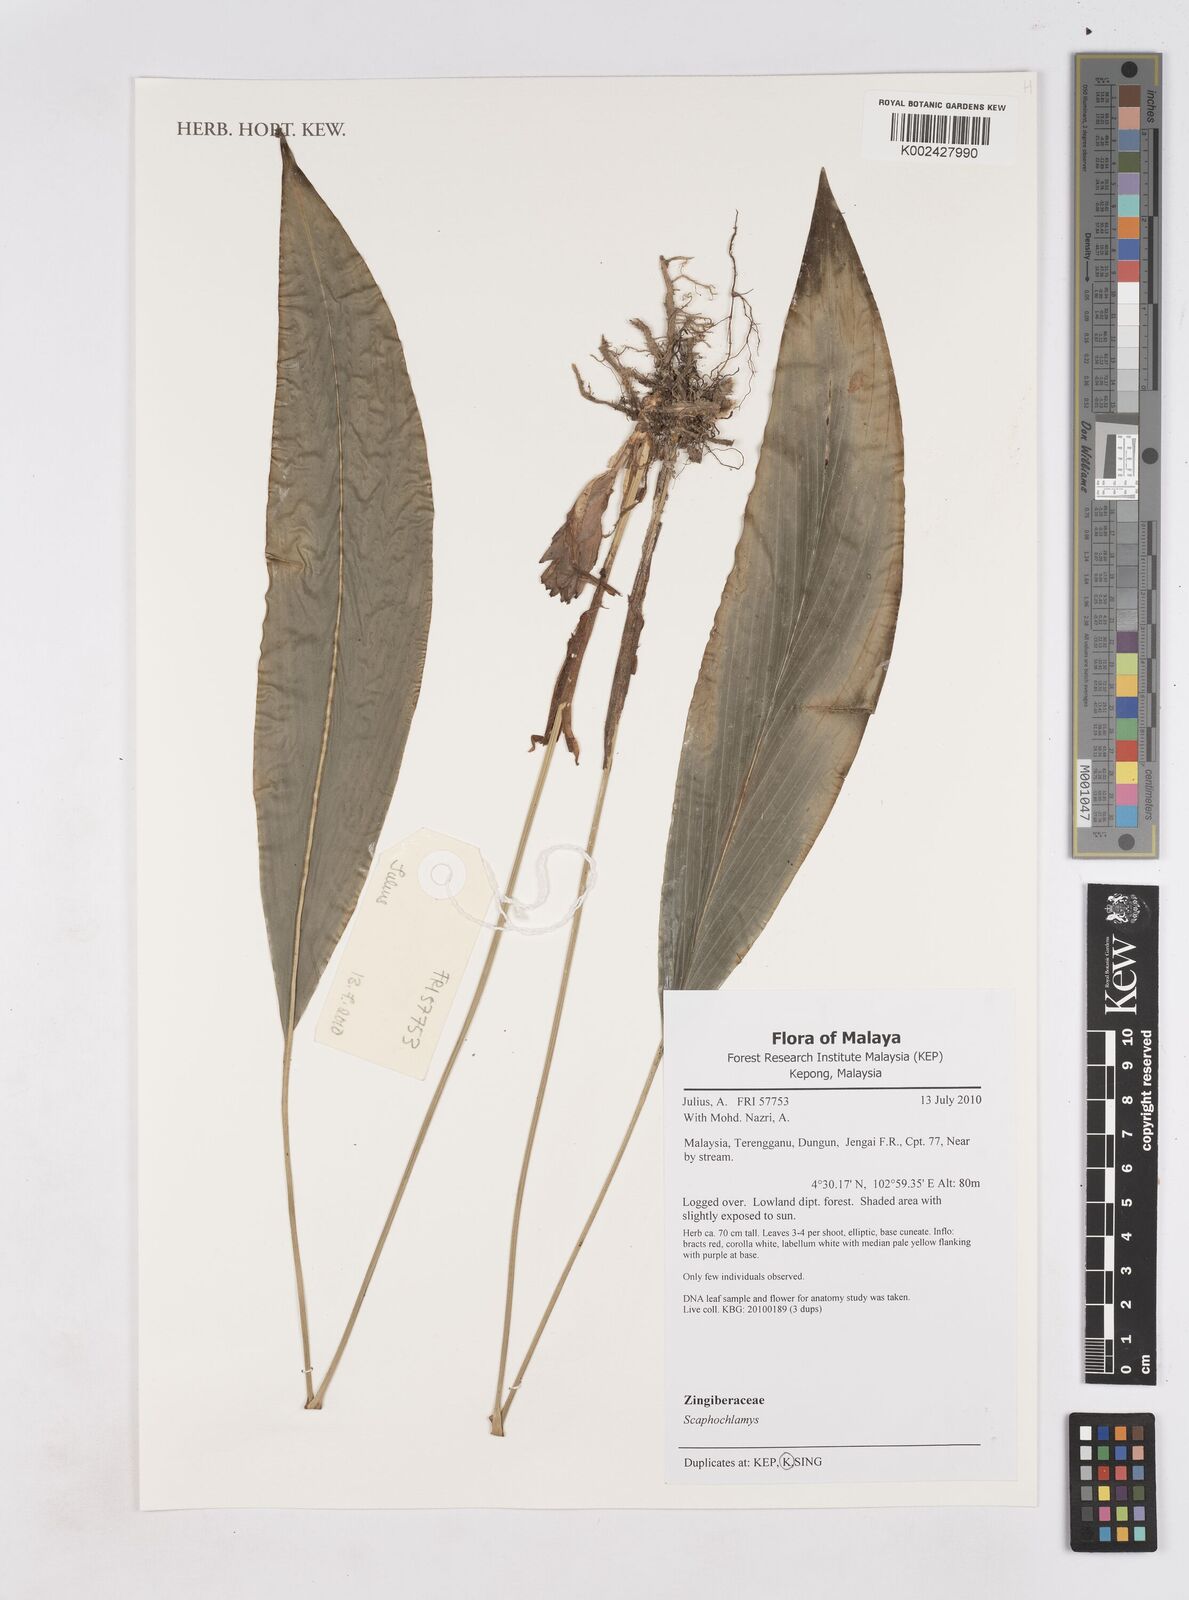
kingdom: Plantae
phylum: Tracheophyta
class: Liliopsida
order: Zingiberales
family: Zingiberaceae
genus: Scaphochlamys
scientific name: Scaphochlamys
